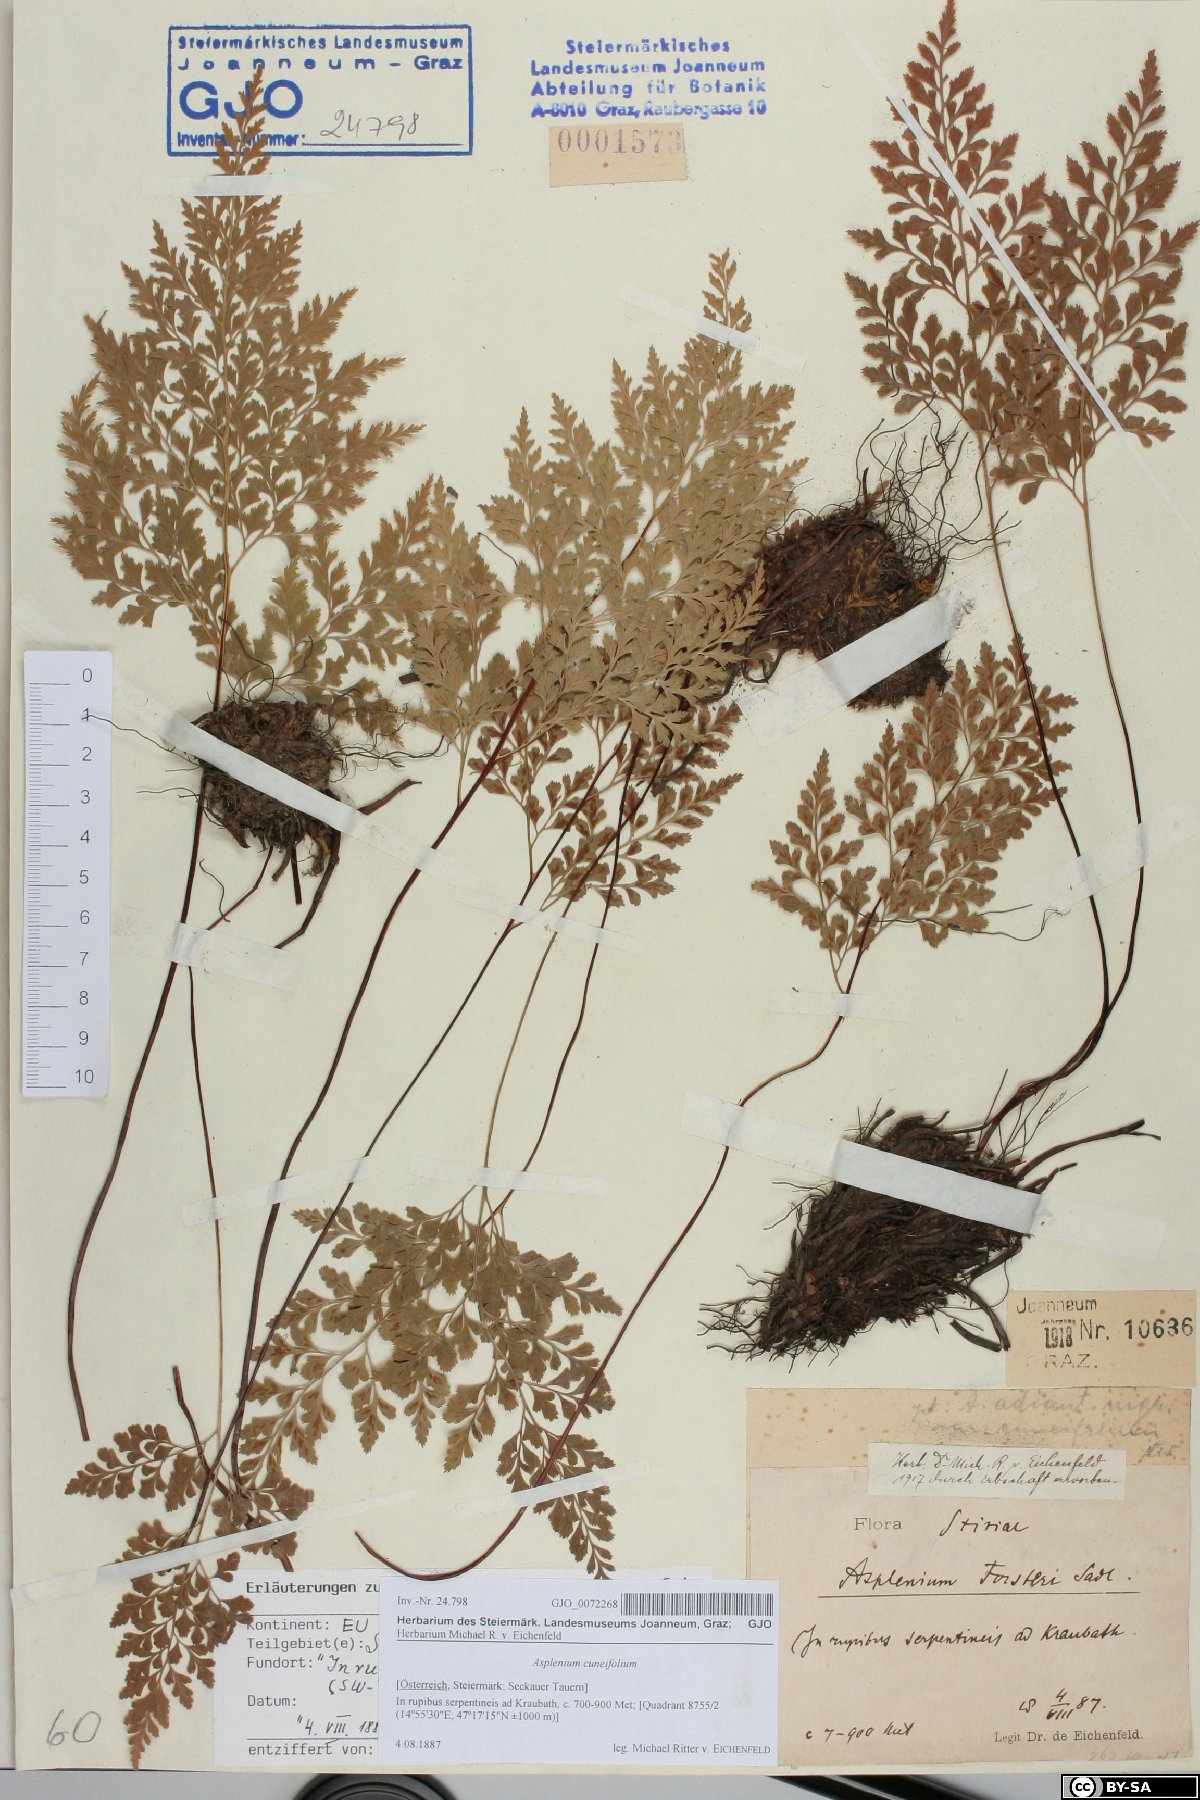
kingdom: Plantae
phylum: Tracheophyta
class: Polypodiopsida
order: Polypodiales
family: Aspleniaceae
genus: Asplenium
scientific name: Asplenium cuneifolium
